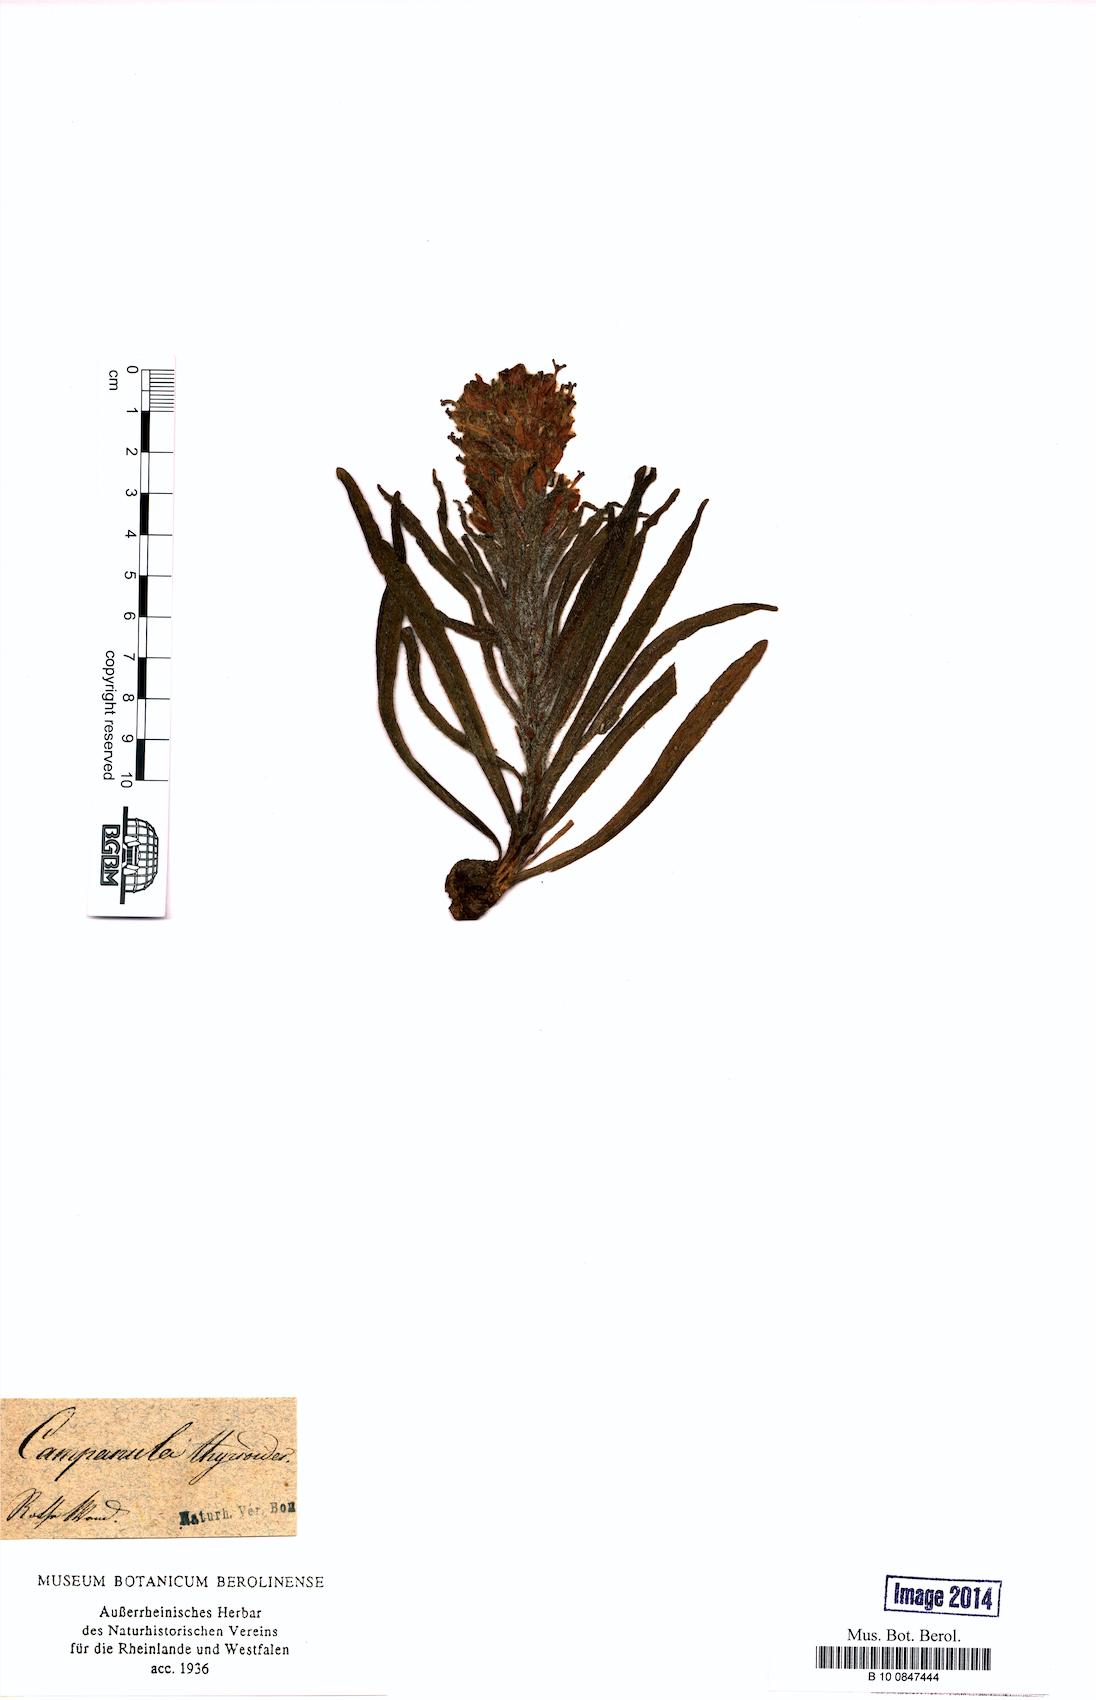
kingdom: Plantae
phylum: Tracheophyta
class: Magnoliopsida
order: Asterales
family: Campanulaceae
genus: Campanula
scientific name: Campanula thyrsoides
